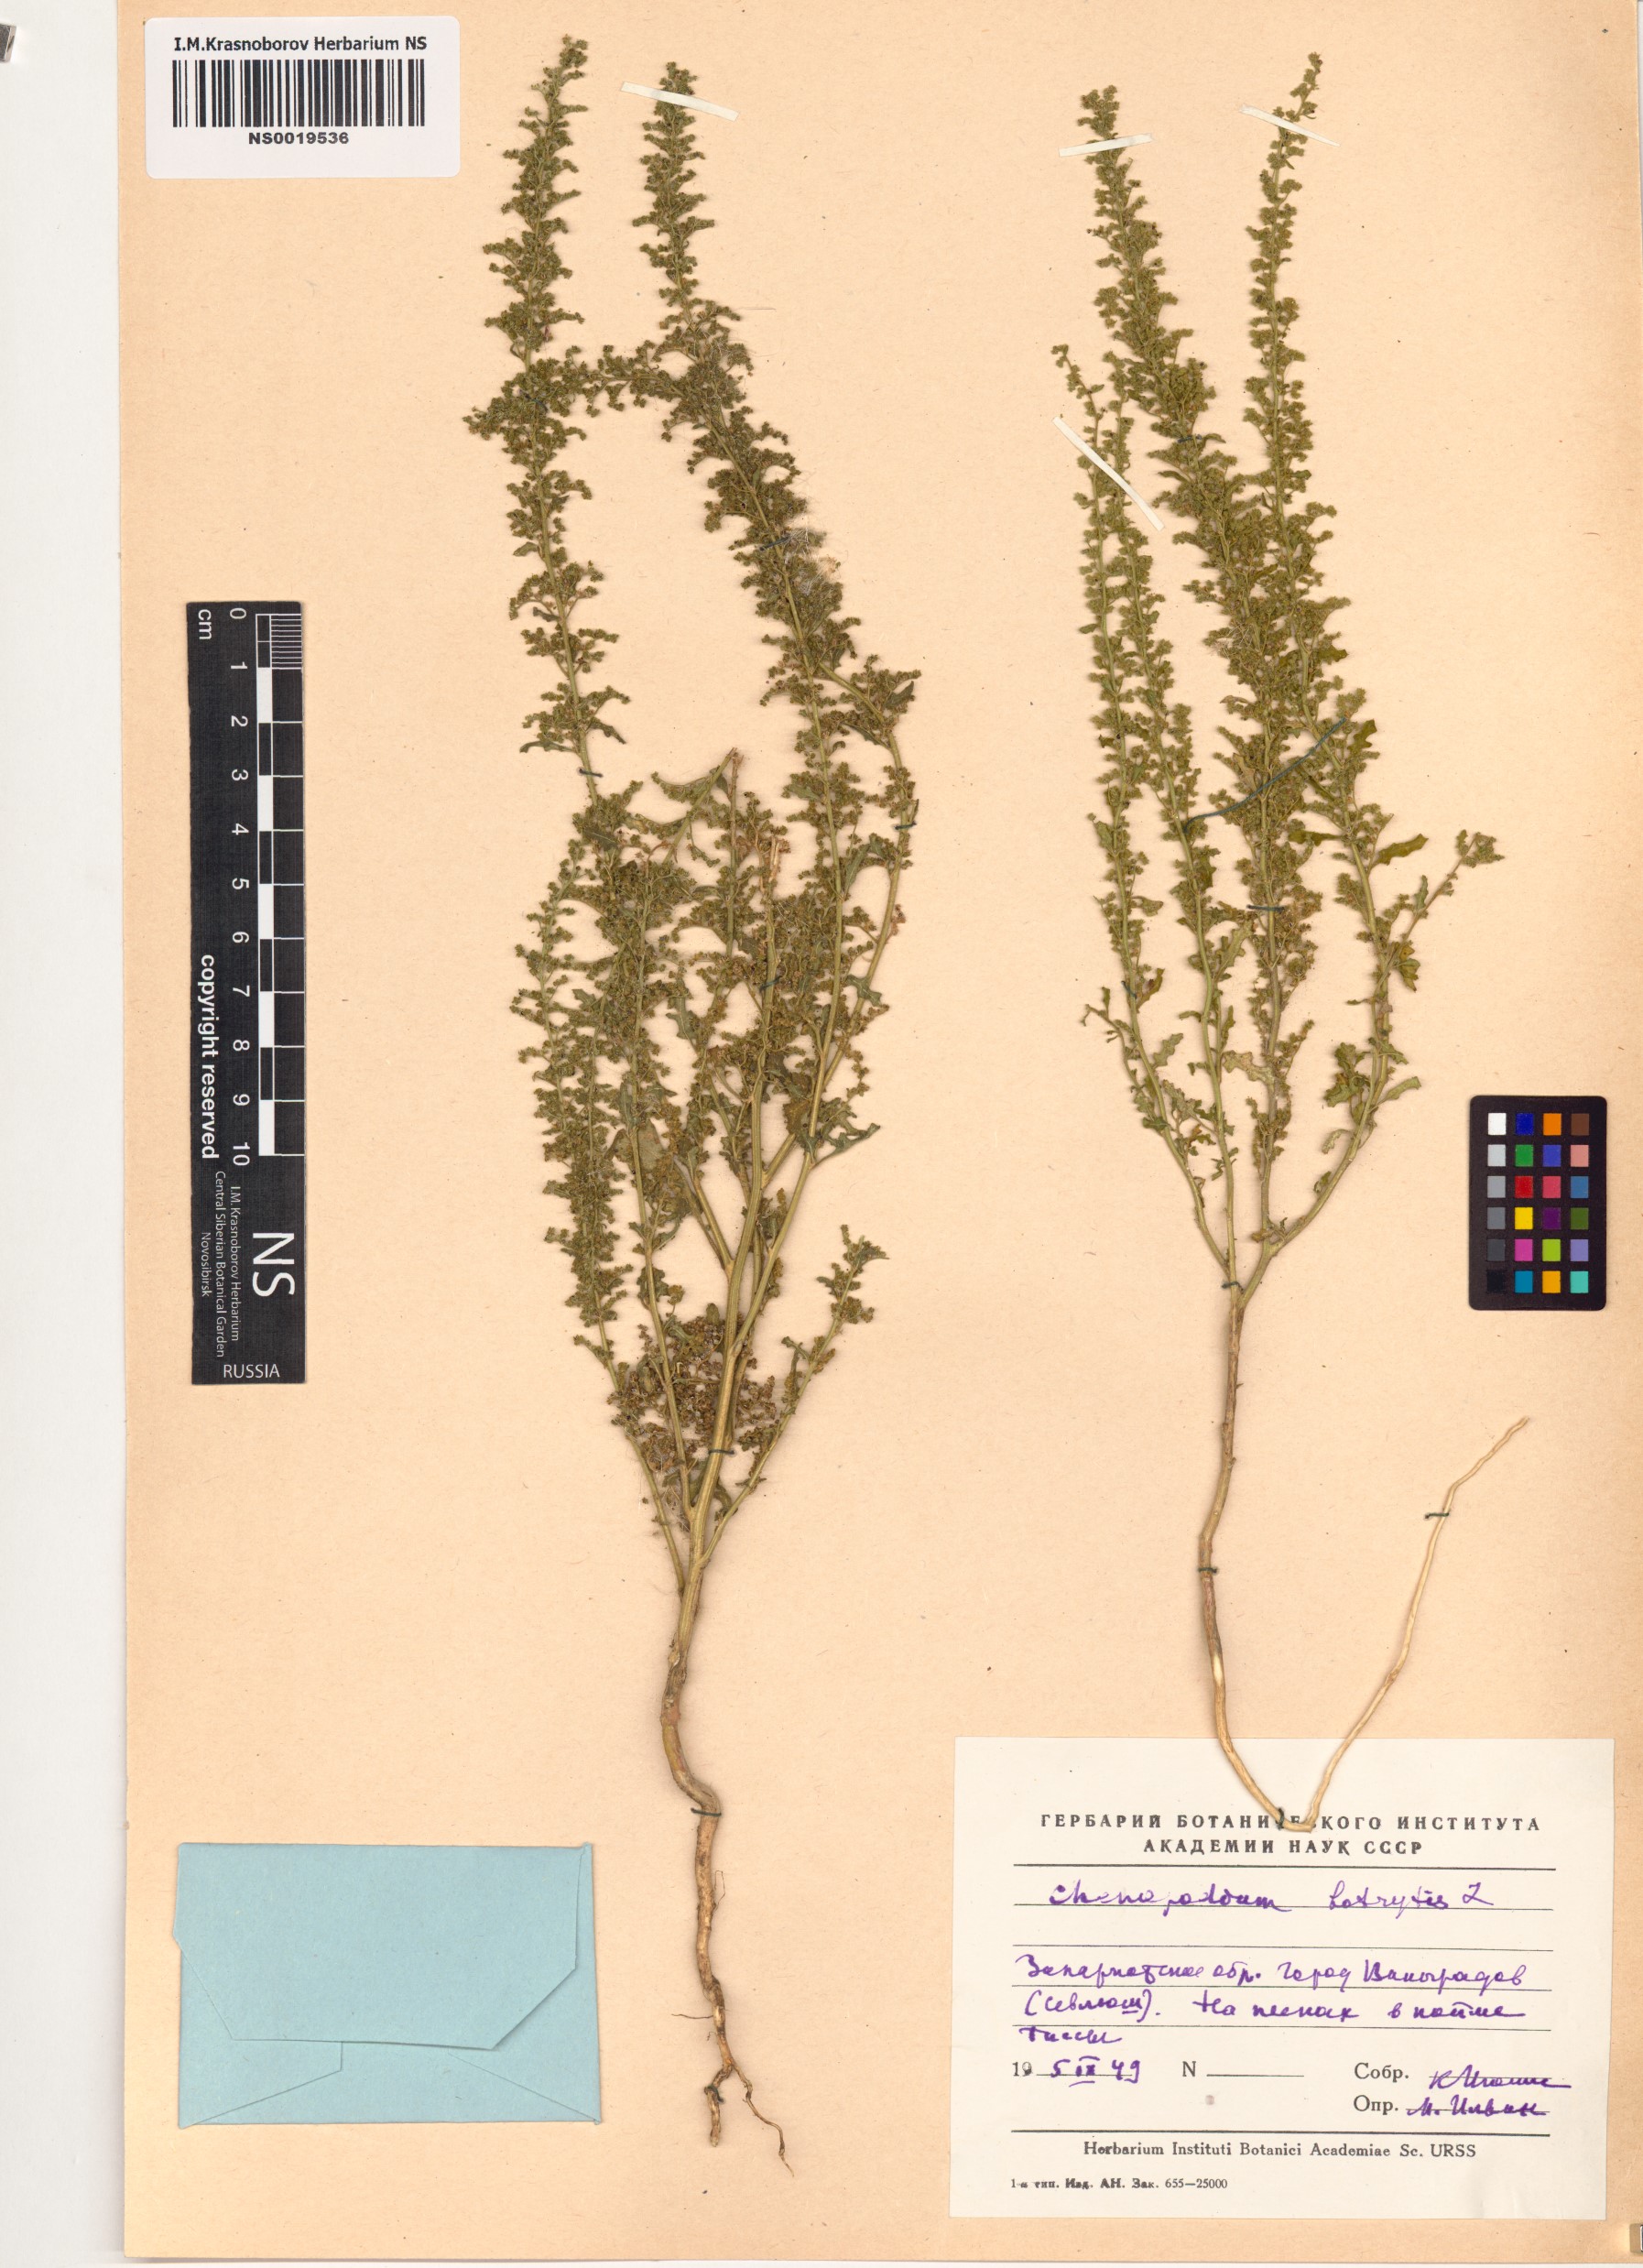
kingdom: Plantae
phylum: Tracheophyta
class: Magnoliopsida
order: Caryophyllales
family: Amaranthaceae
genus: Dysphania
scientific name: Dysphania botrys
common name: Feather-geranium
